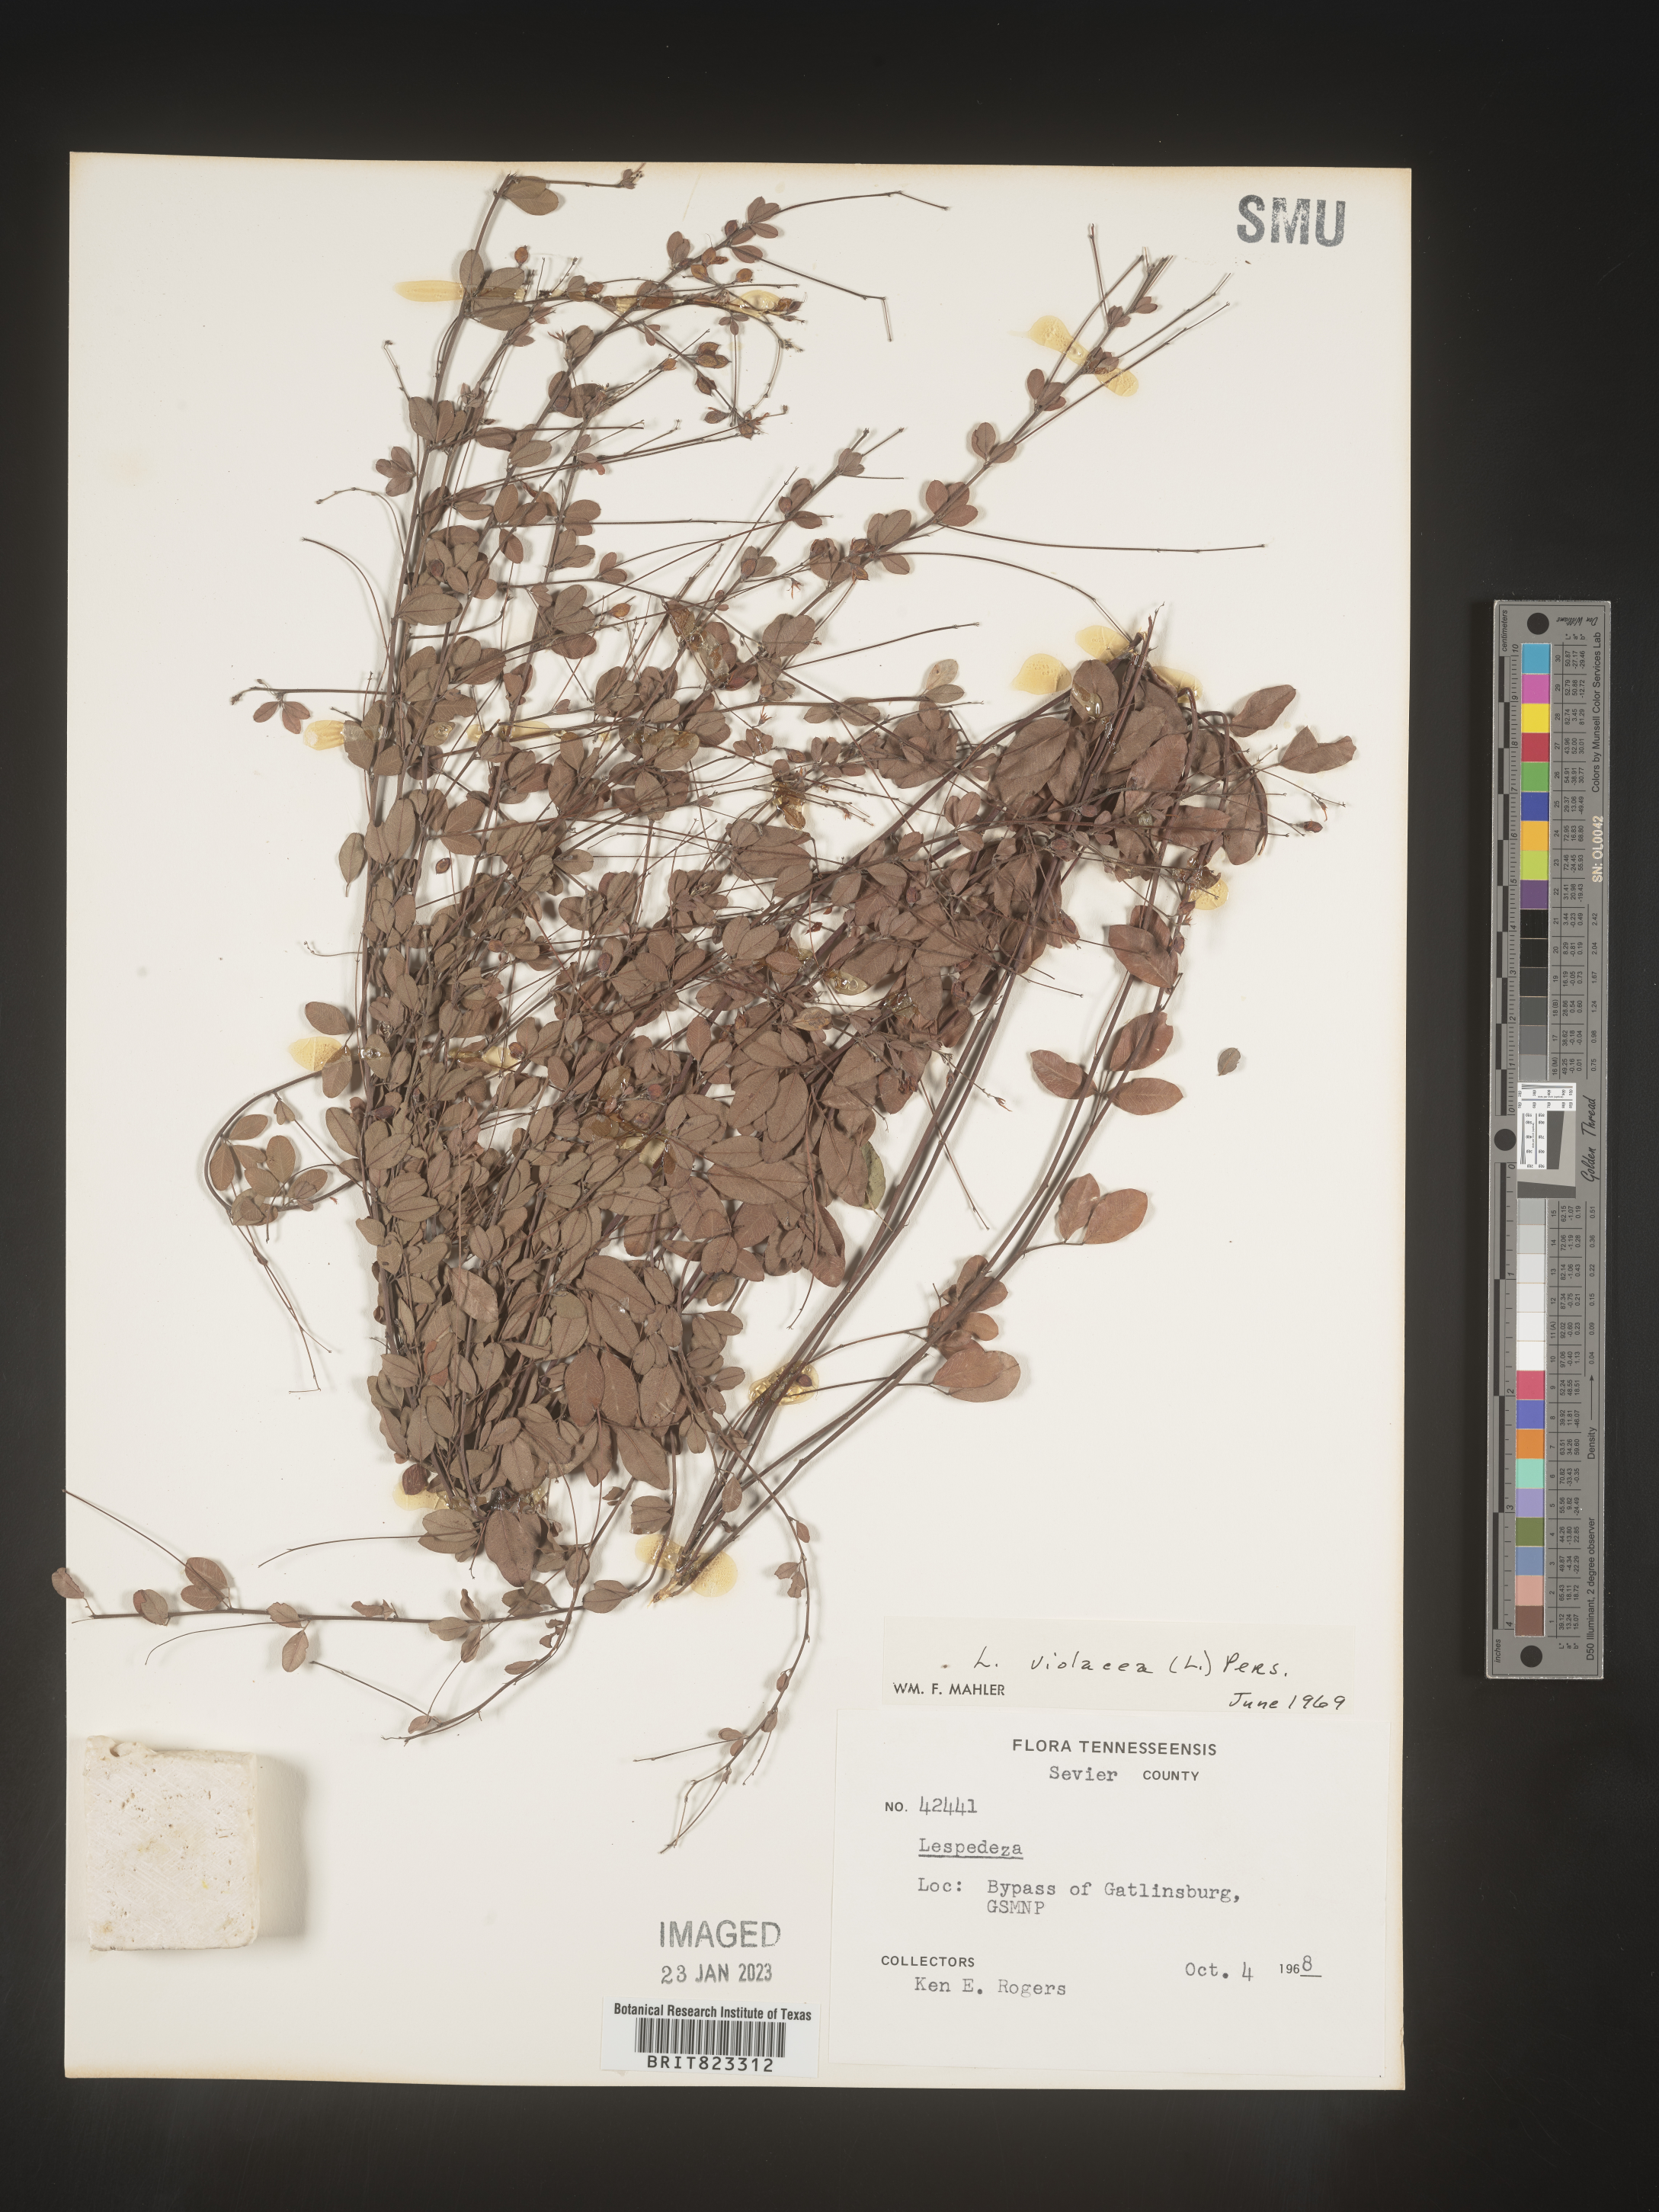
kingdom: Plantae
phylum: Tracheophyta
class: Magnoliopsida
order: Fabales
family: Fabaceae
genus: Lespedeza
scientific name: Lespedeza violacea
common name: Wand bush-clover
